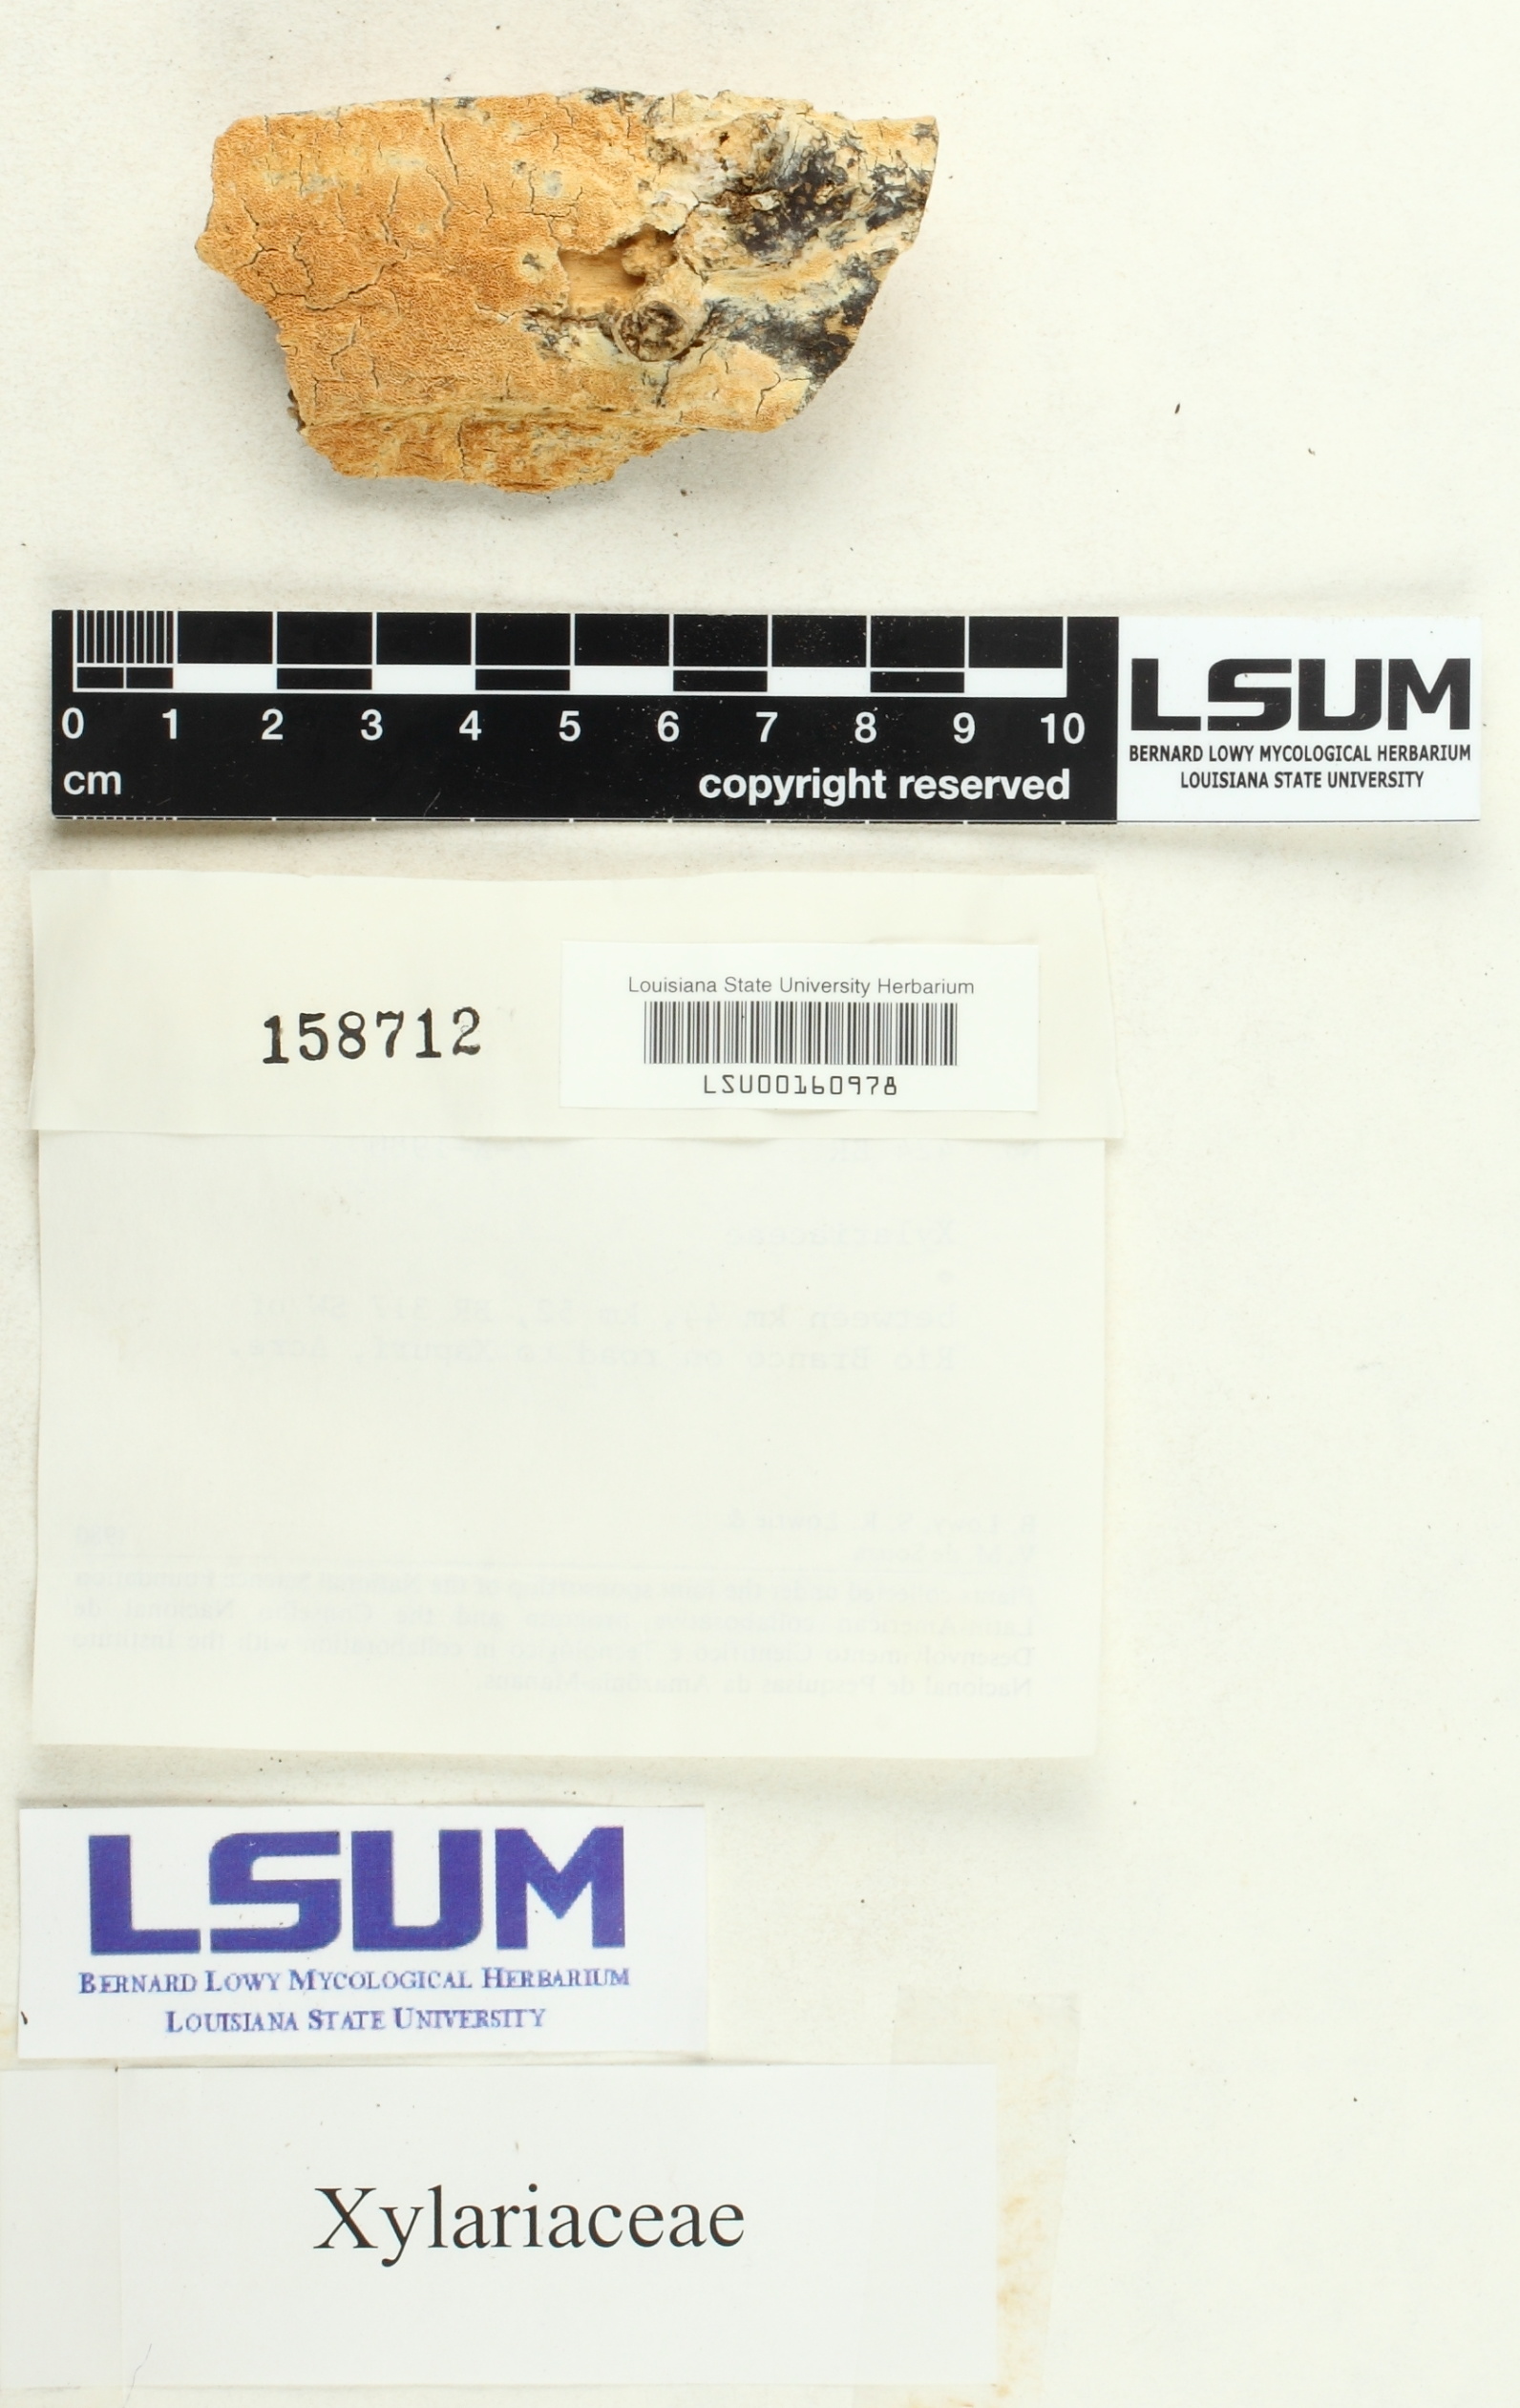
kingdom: Fungi
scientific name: Fungi
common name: Fungi
